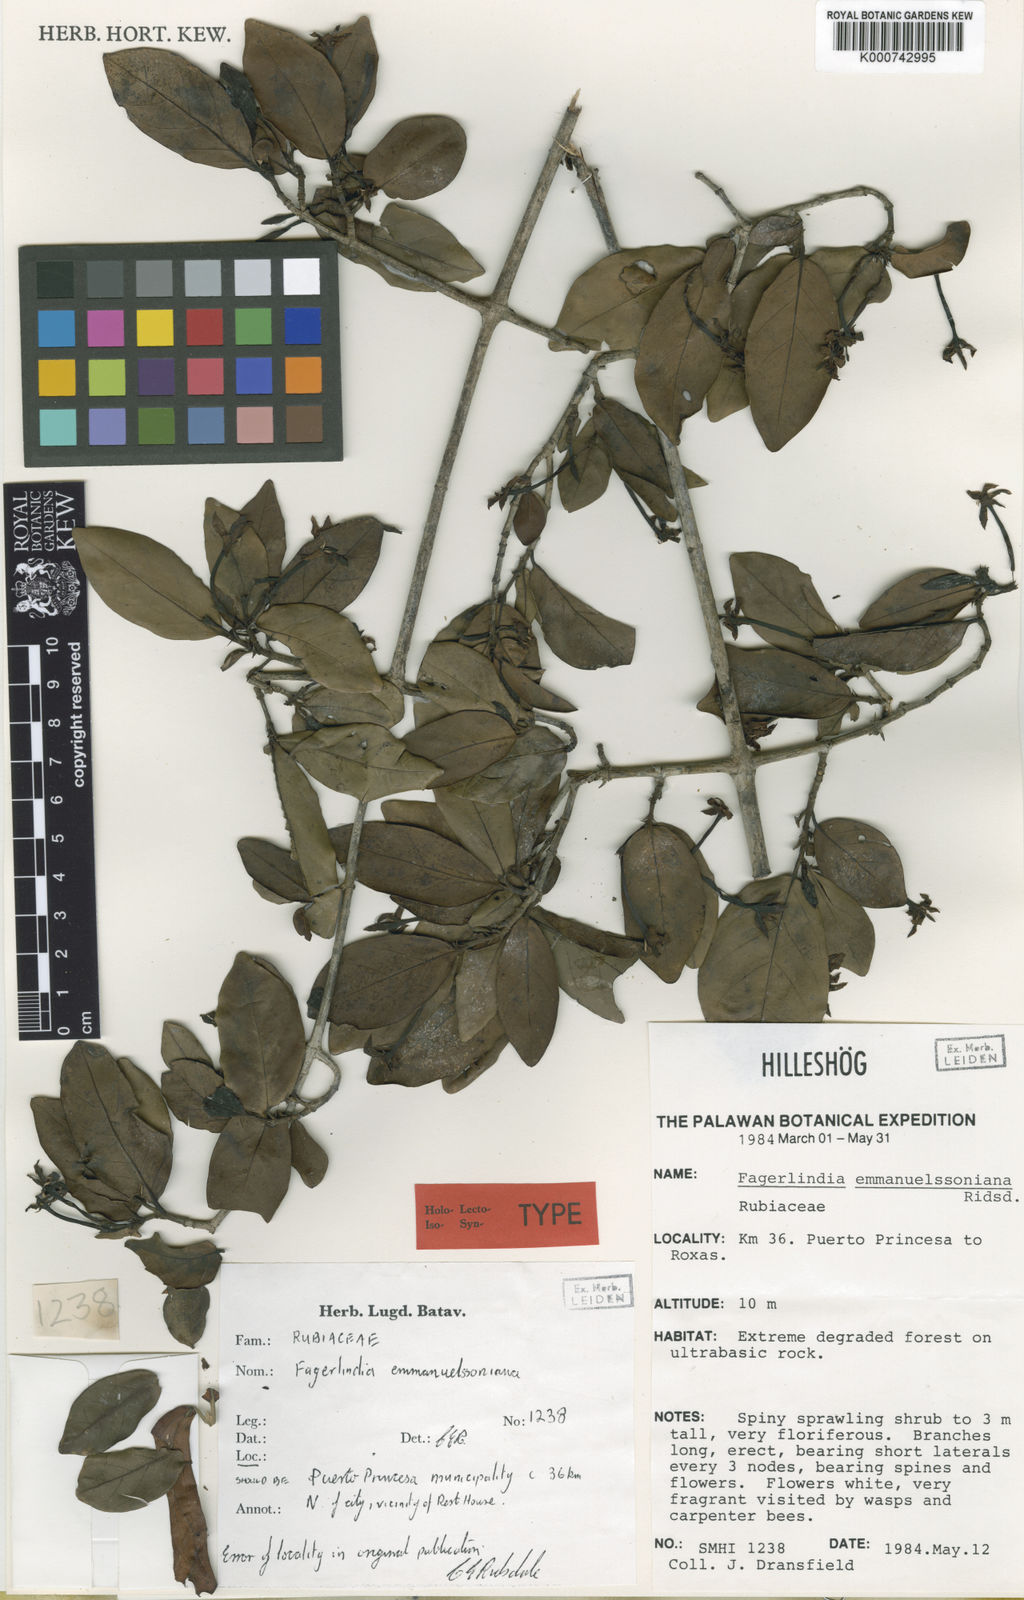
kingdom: Plantae
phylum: Tracheophyta
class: Magnoliopsida
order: Gentianales
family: Rubiaceae
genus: Benkara
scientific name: Benkara emanuelssoniana
